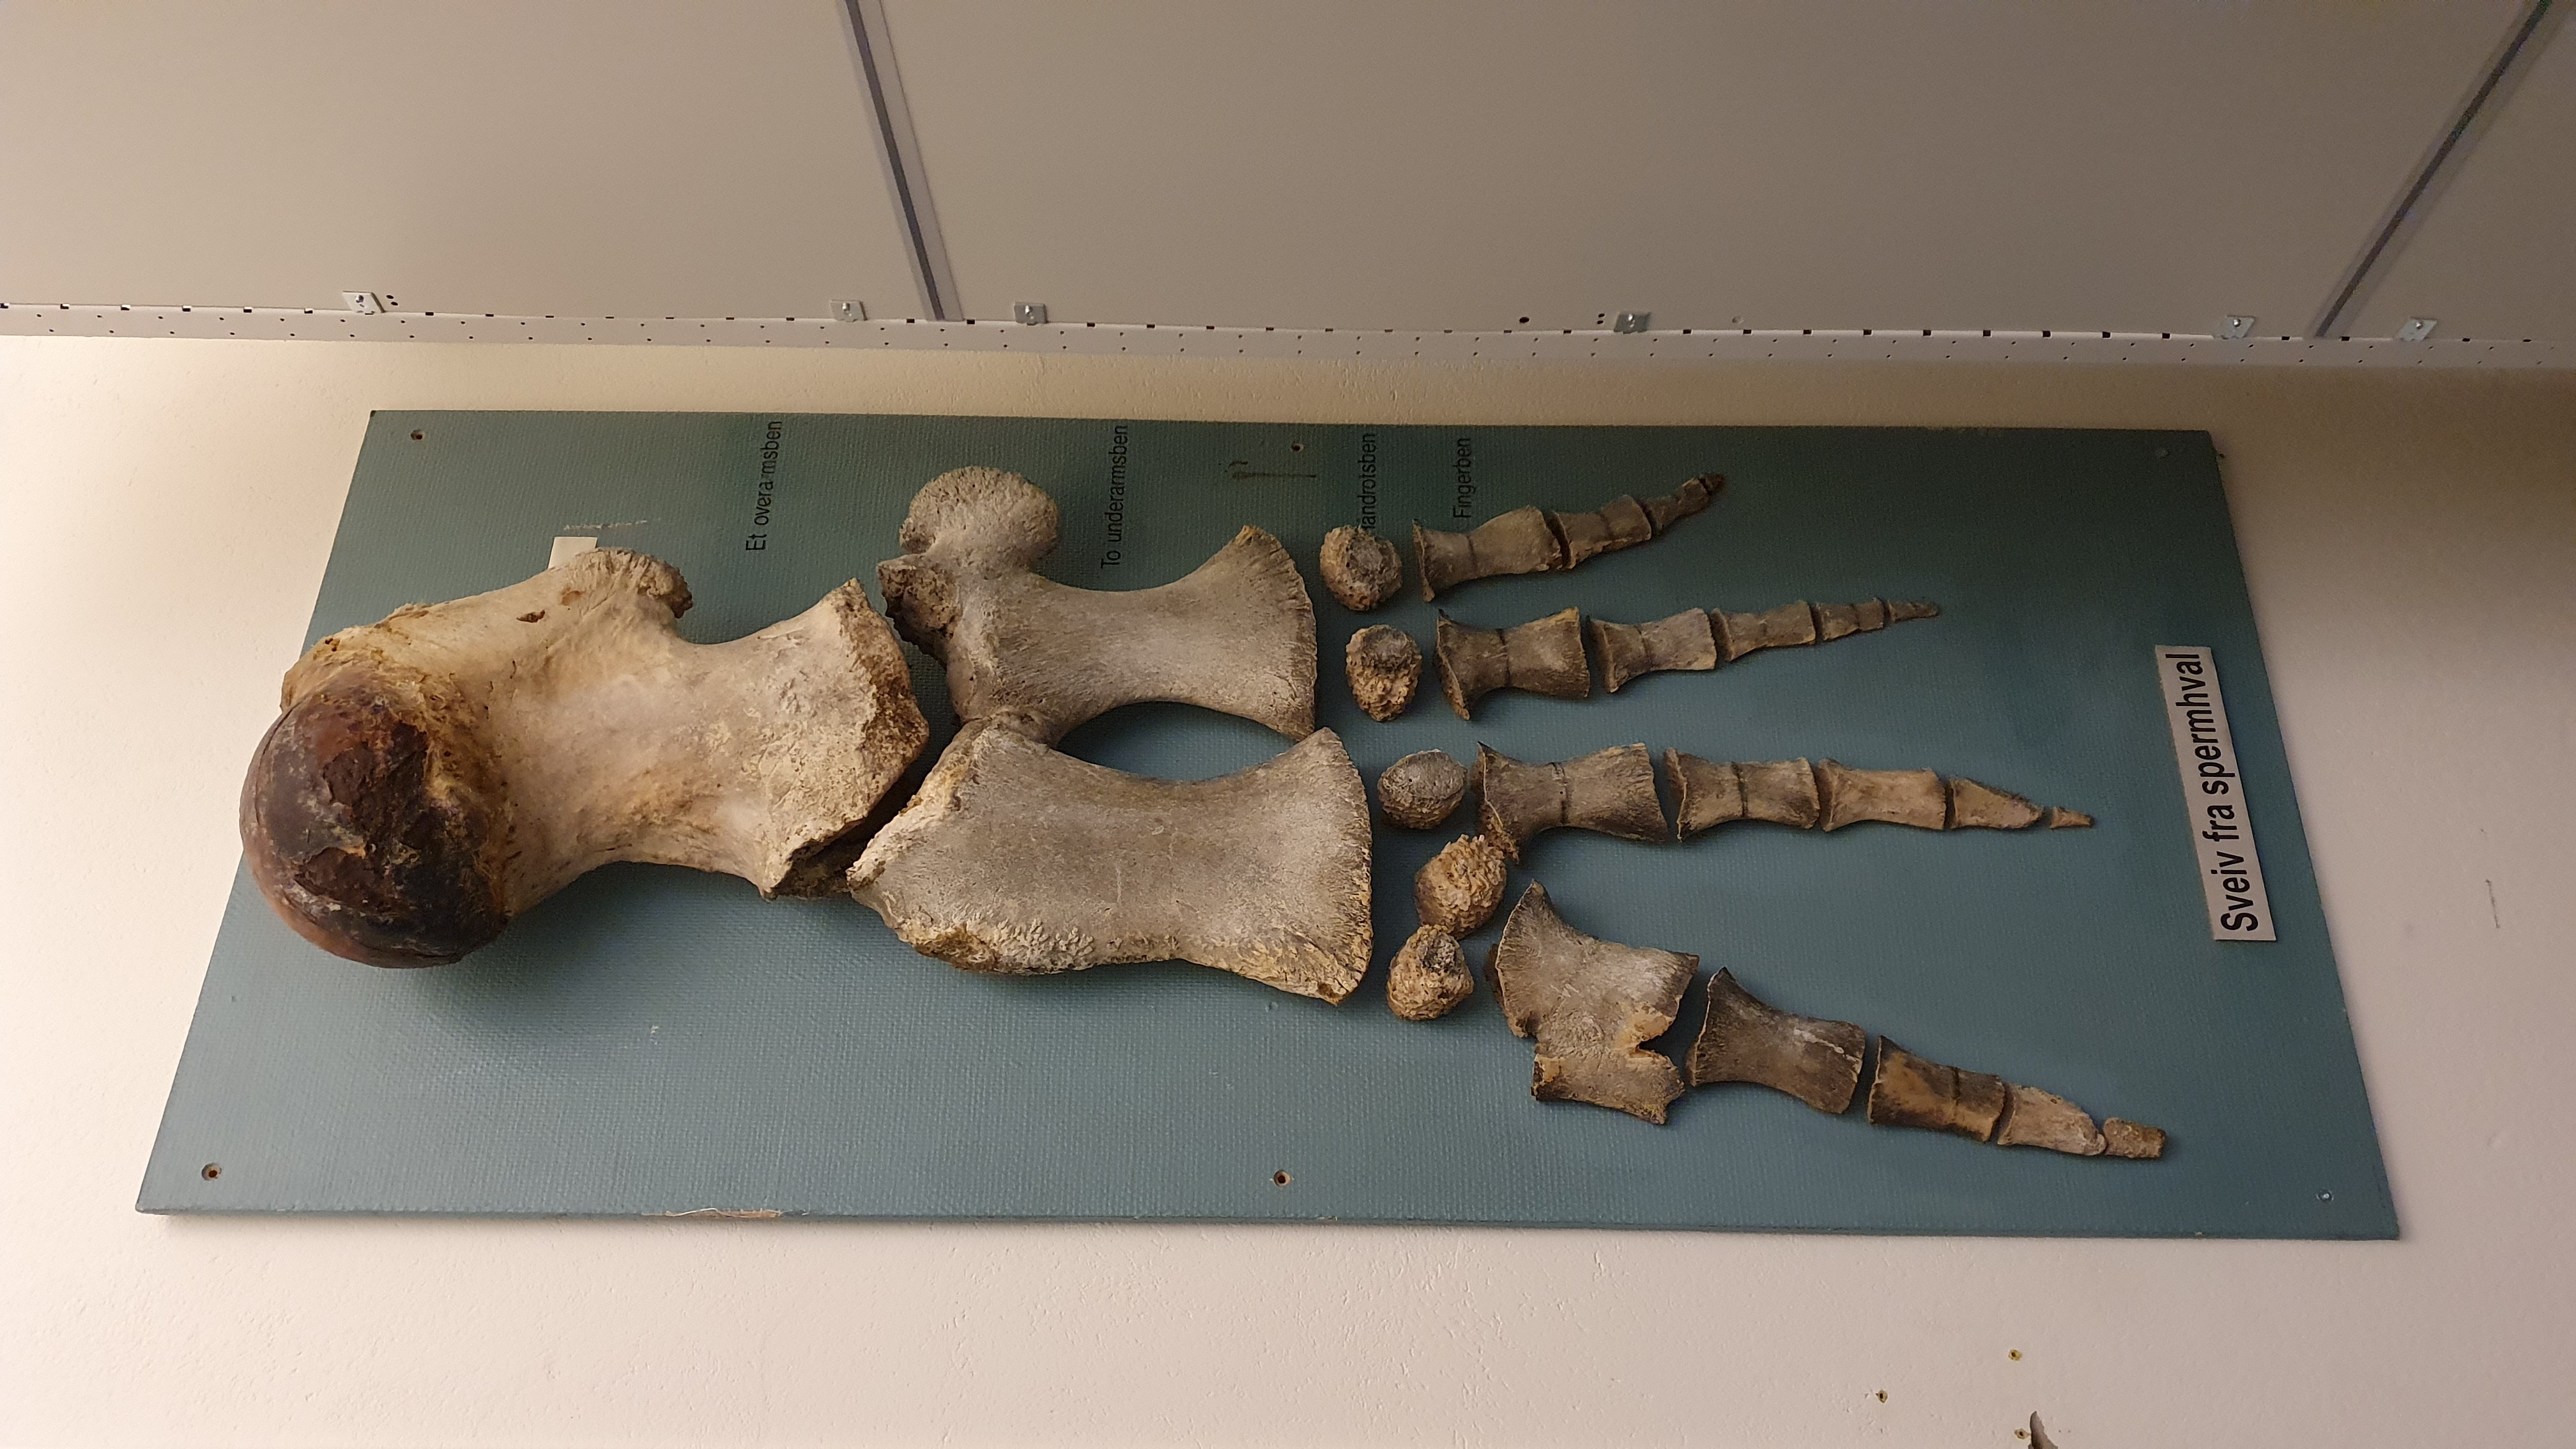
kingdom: Animalia
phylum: Chordata
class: Mammalia
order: Cetacea
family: Physeteridae
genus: Physeter
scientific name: Physeter macrocephalus
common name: Sperm whale
